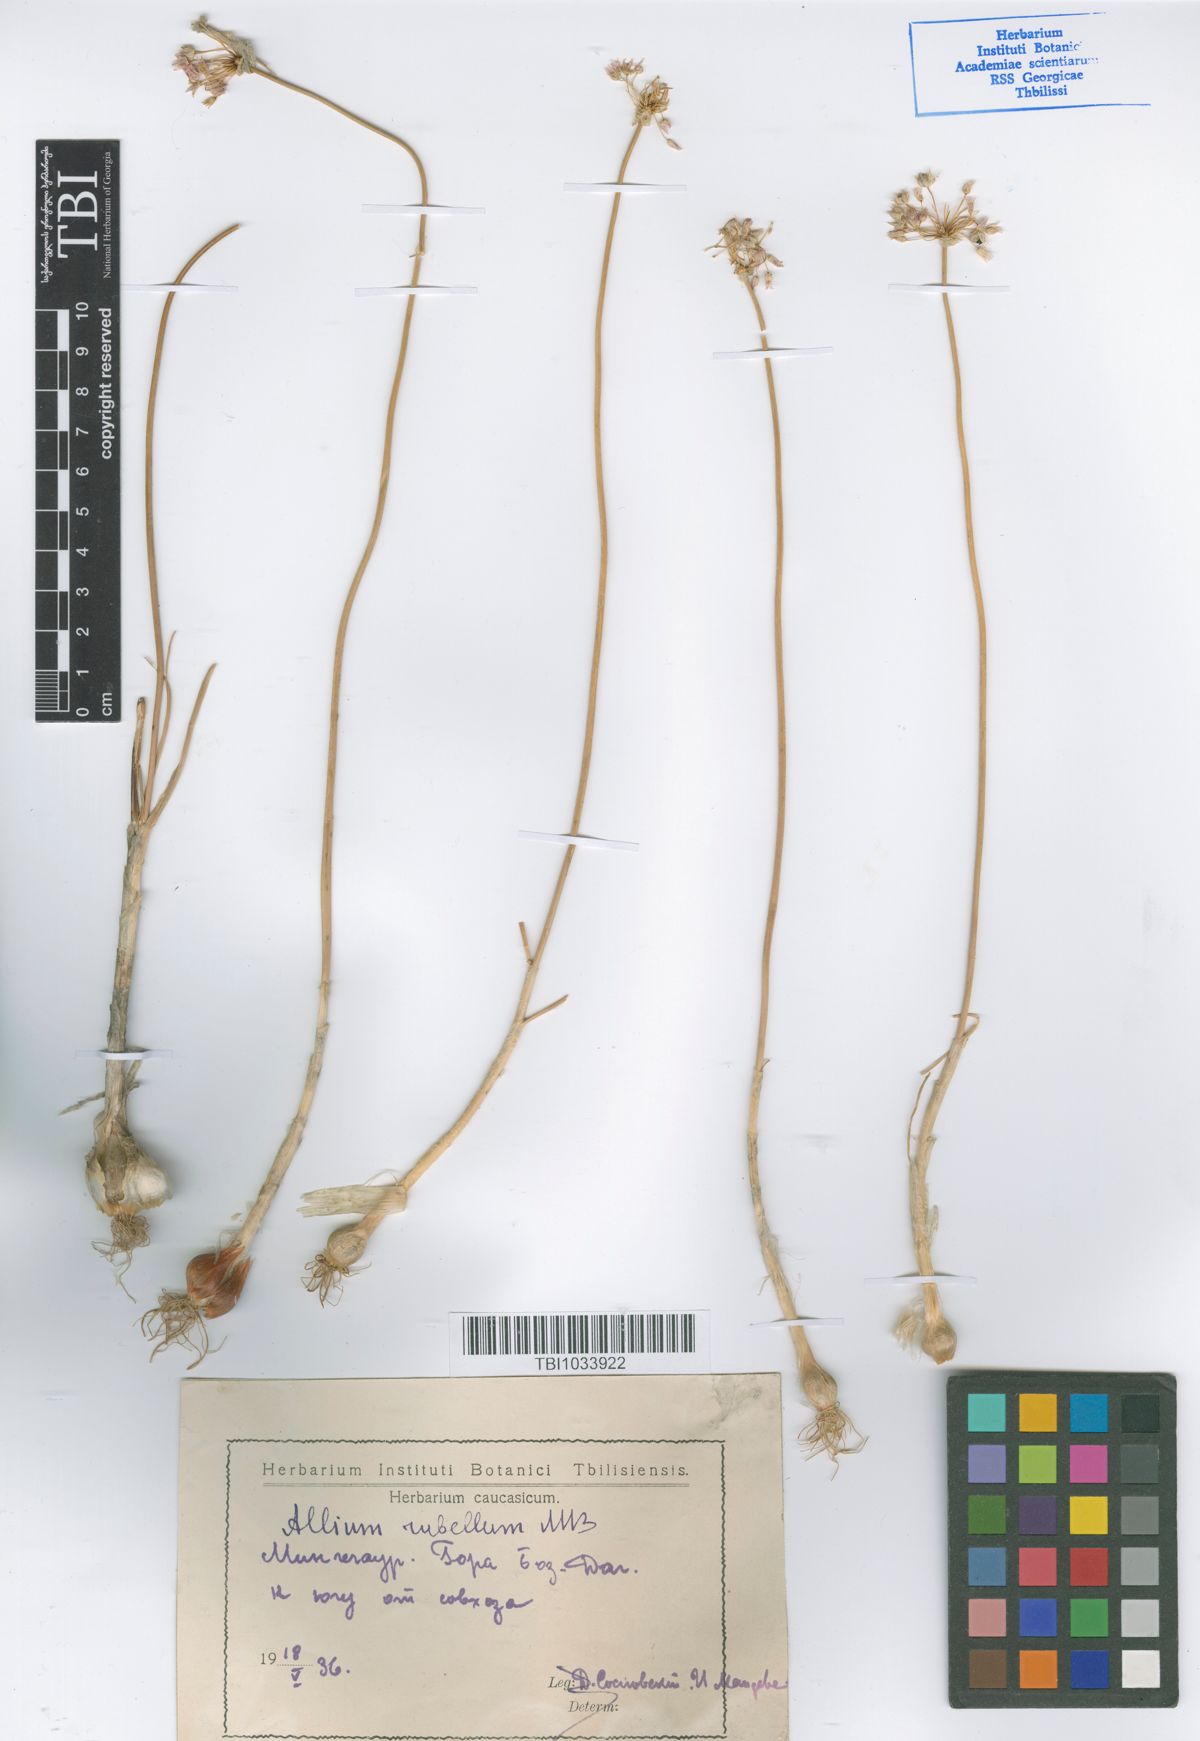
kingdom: Plantae
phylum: Tracheophyta
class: Liliopsida
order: Asparagales
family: Amaryllidaceae
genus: Allium
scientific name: Allium rubellum
